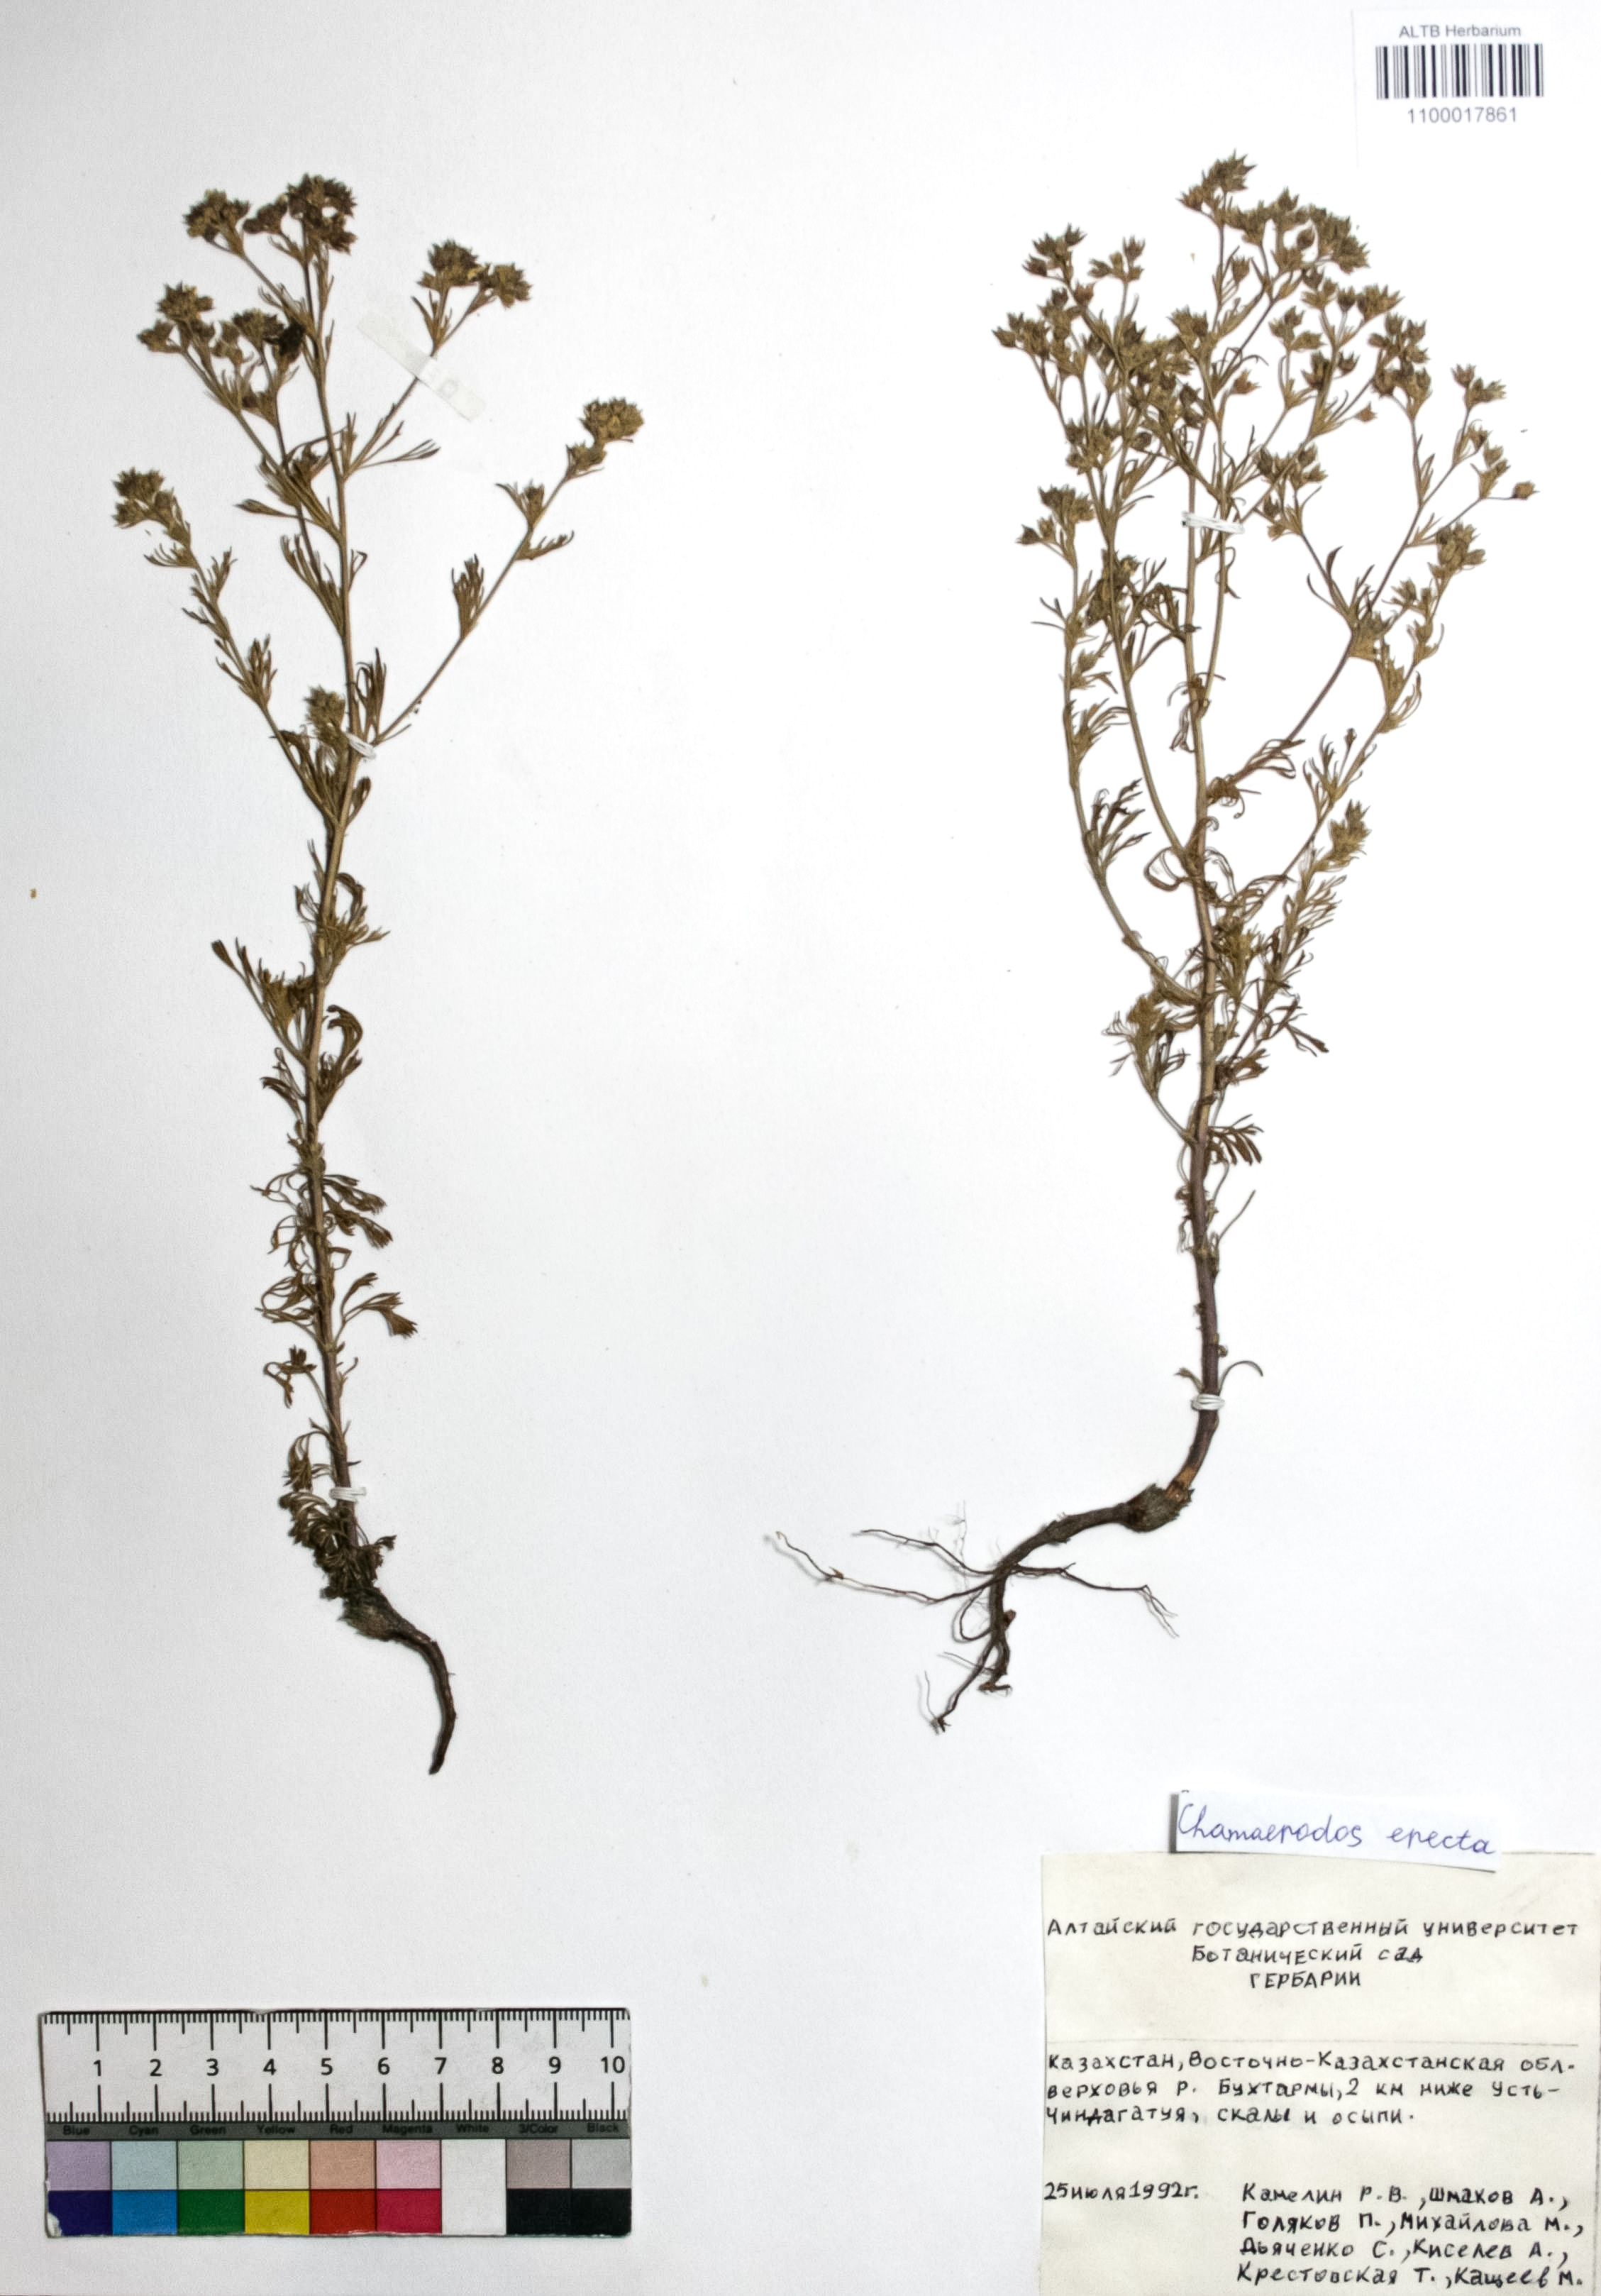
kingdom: Plantae
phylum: Tracheophyta
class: Magnoliopsida
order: Rosales
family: Rosaceae
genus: Chamaerhodos
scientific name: Chamaerhodos erecta
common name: American chamaerhodos
